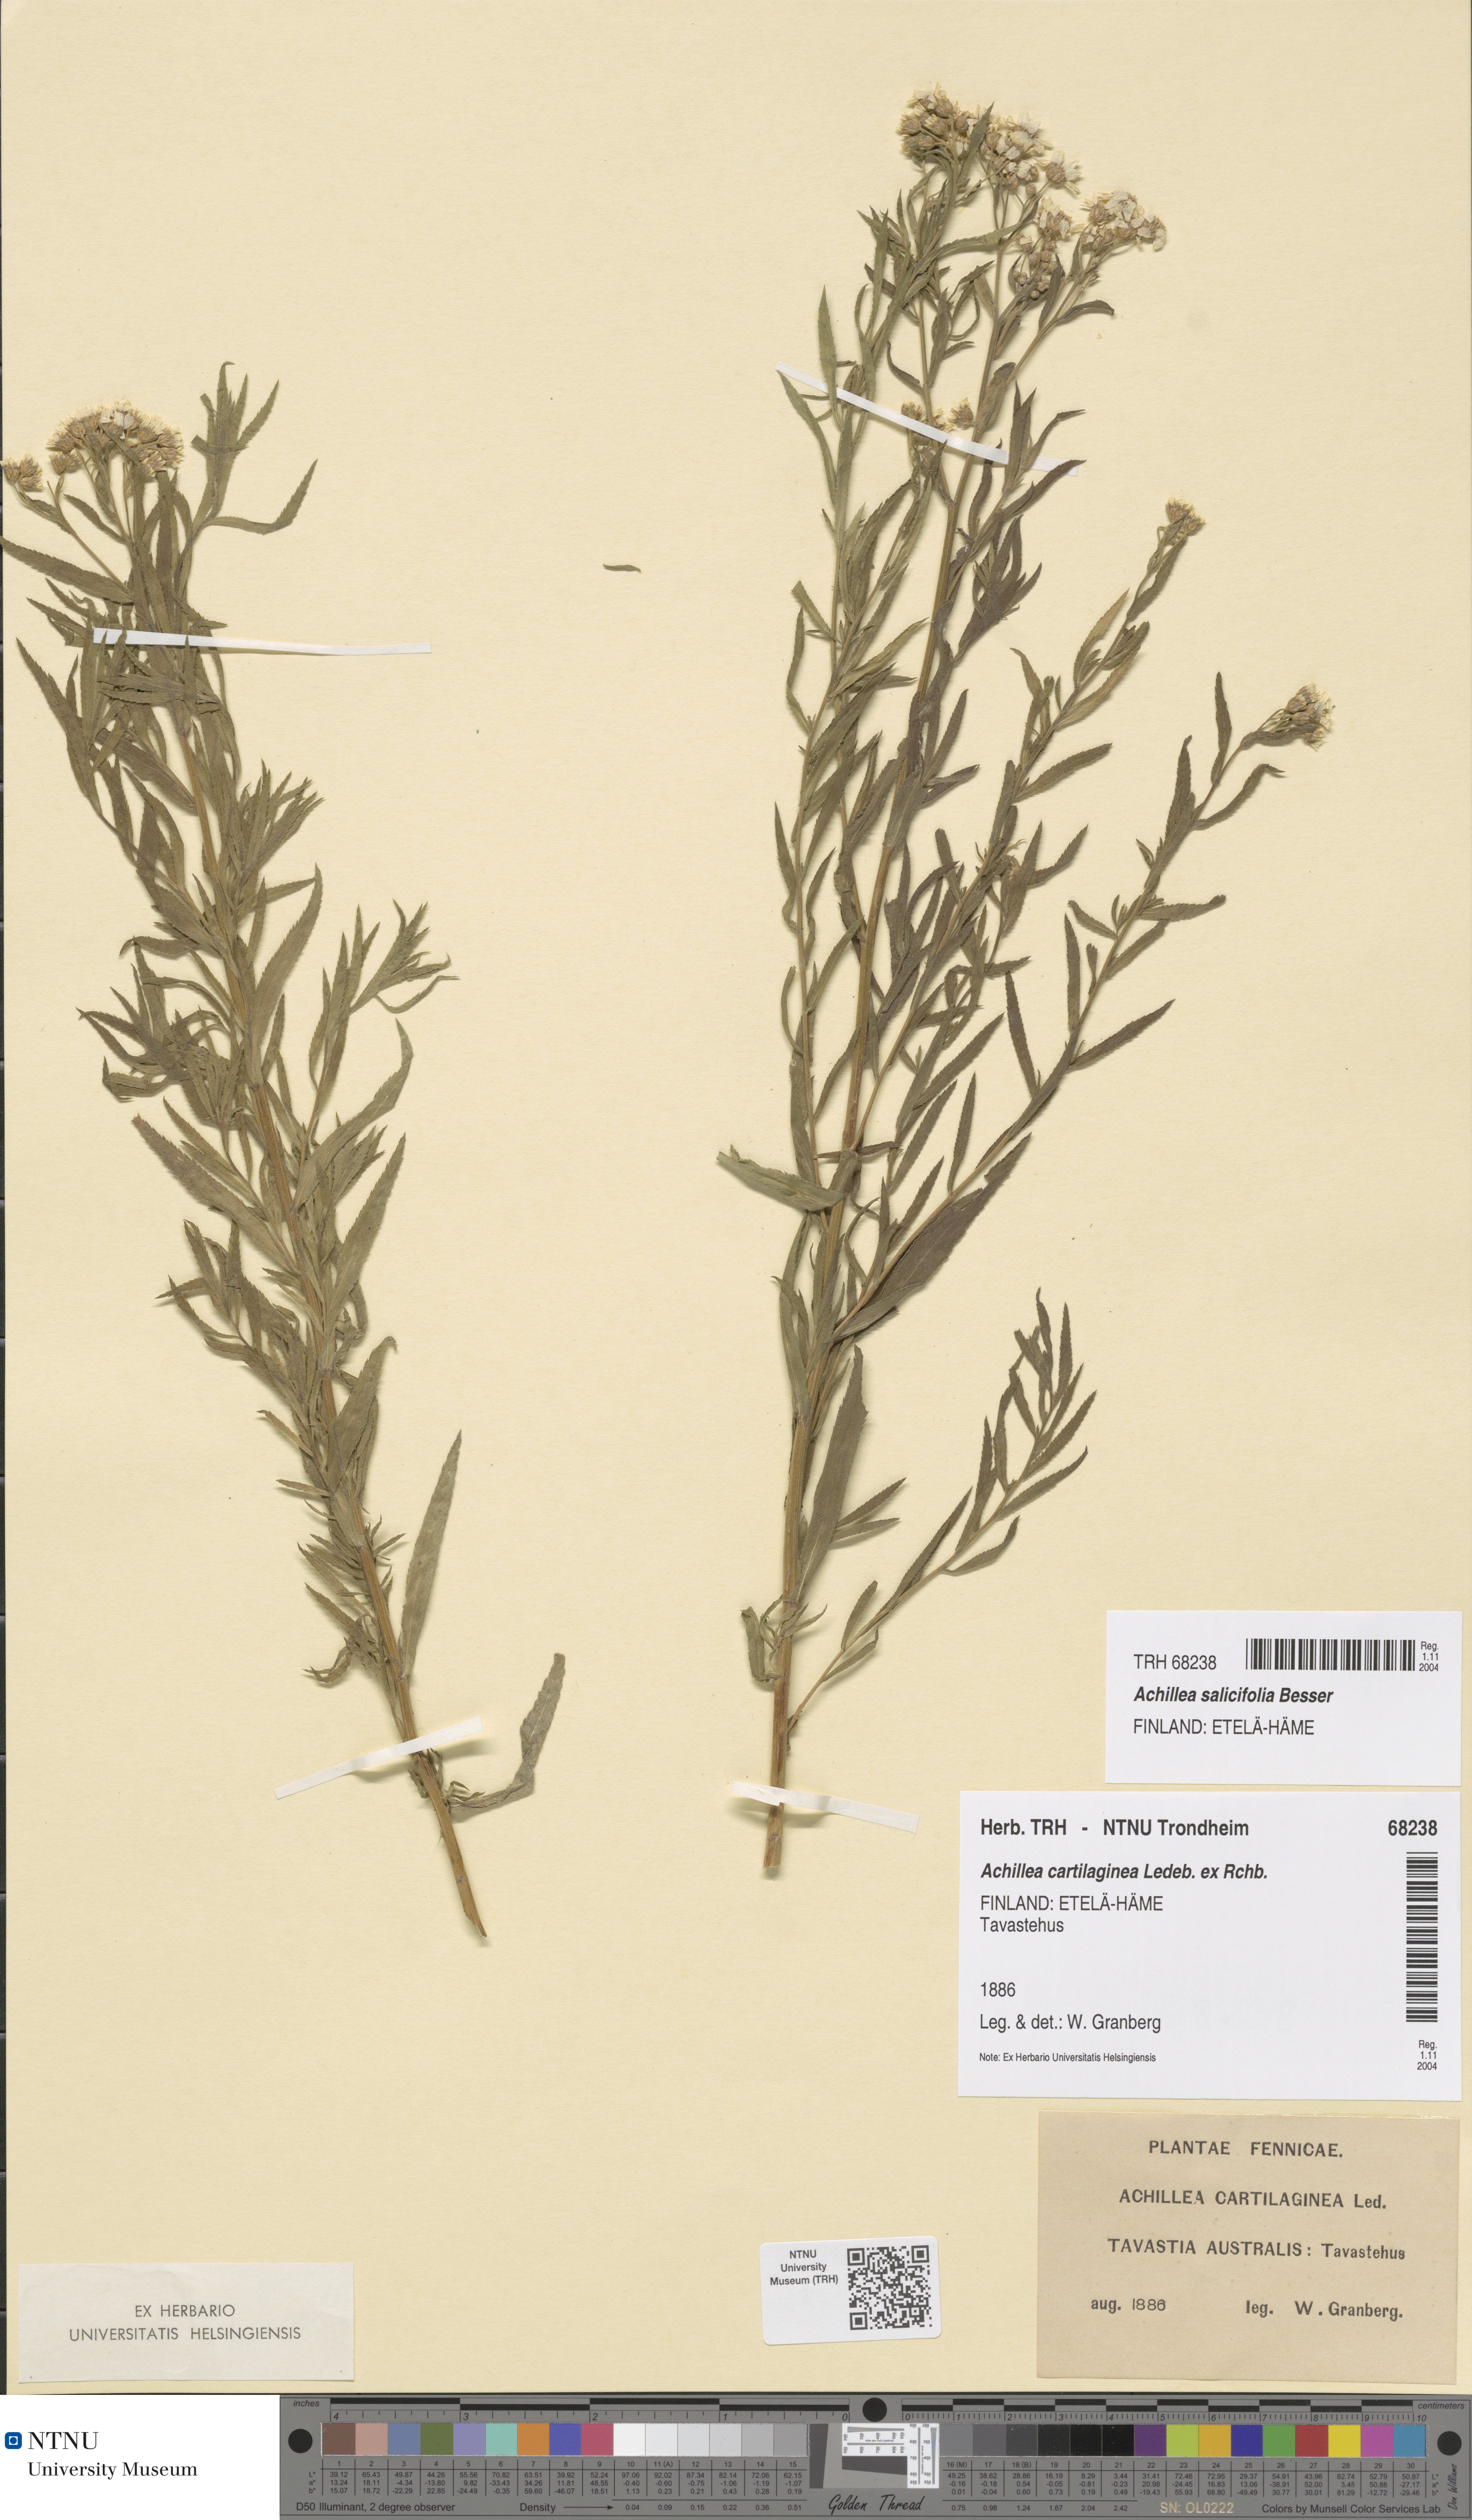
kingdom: Plantae
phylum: Tracheophyta
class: Magnoliopsida
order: Asterales
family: Asteraceae
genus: Achillea
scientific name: Achillea salicifolia
